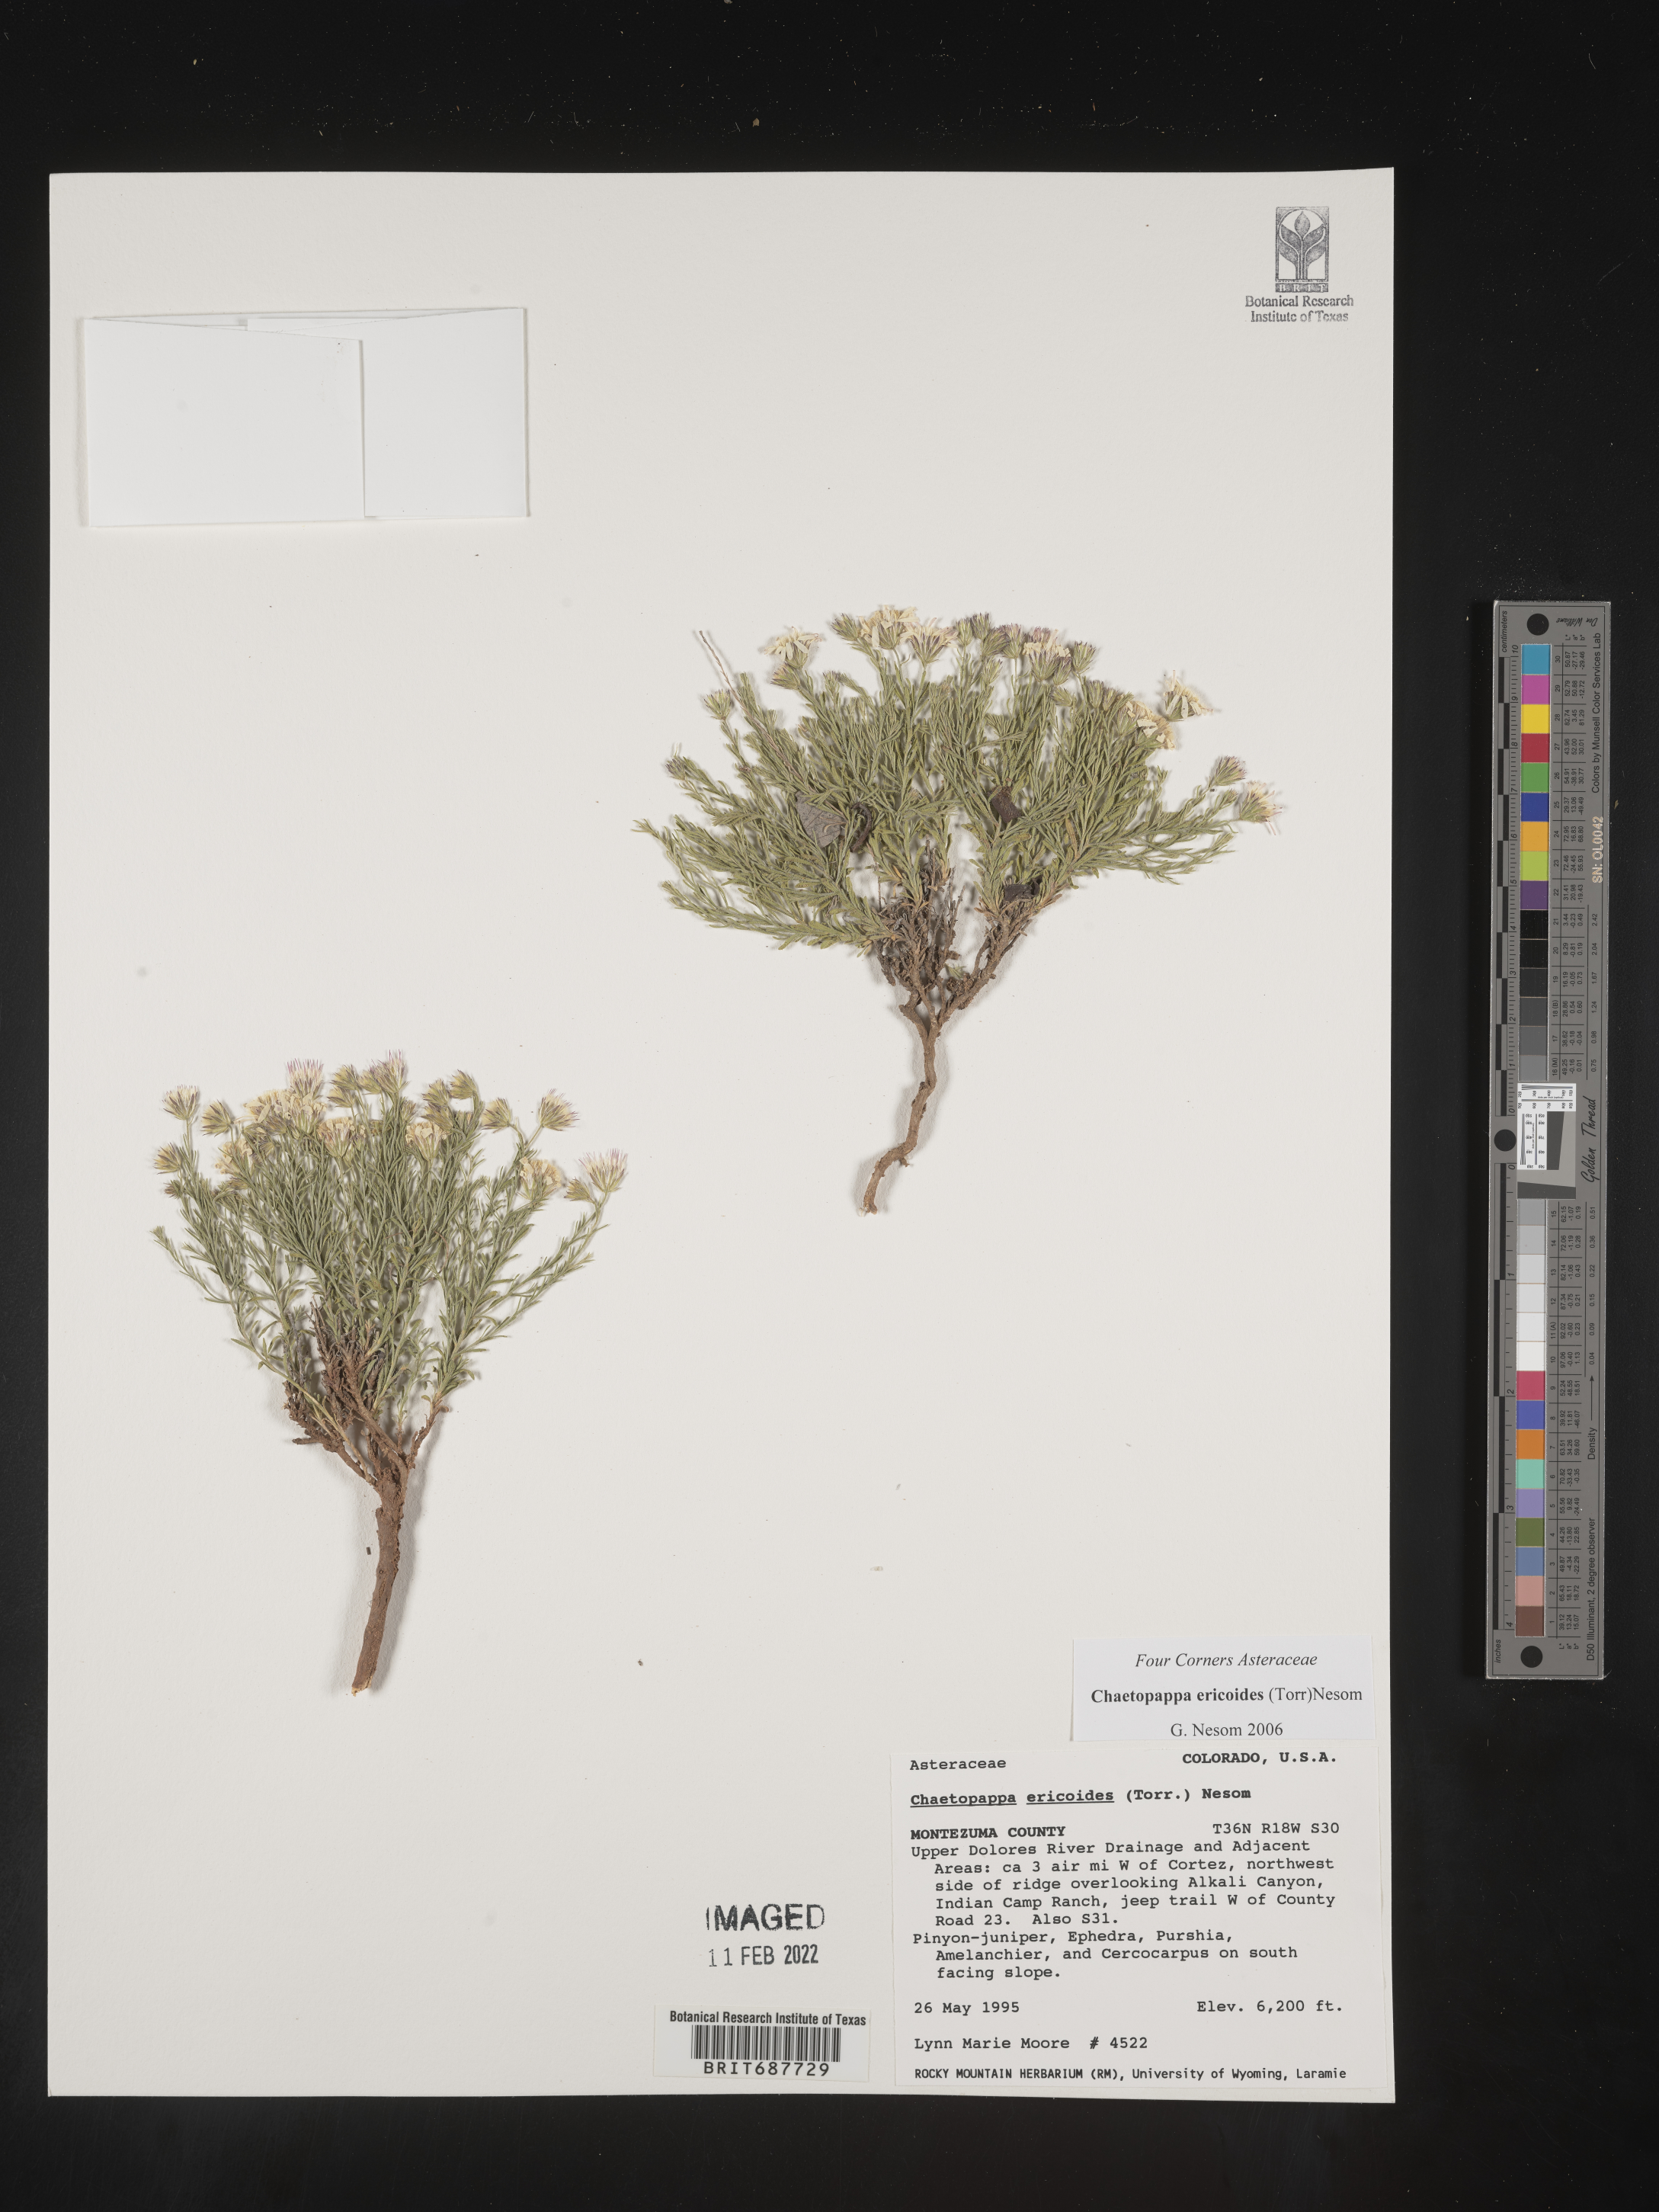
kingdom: Plantae
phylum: Tracheophyta
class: Magnoliopsida
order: Asterales
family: Asteraceae
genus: Chaetopappa
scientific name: Chaetopappa ericoides
